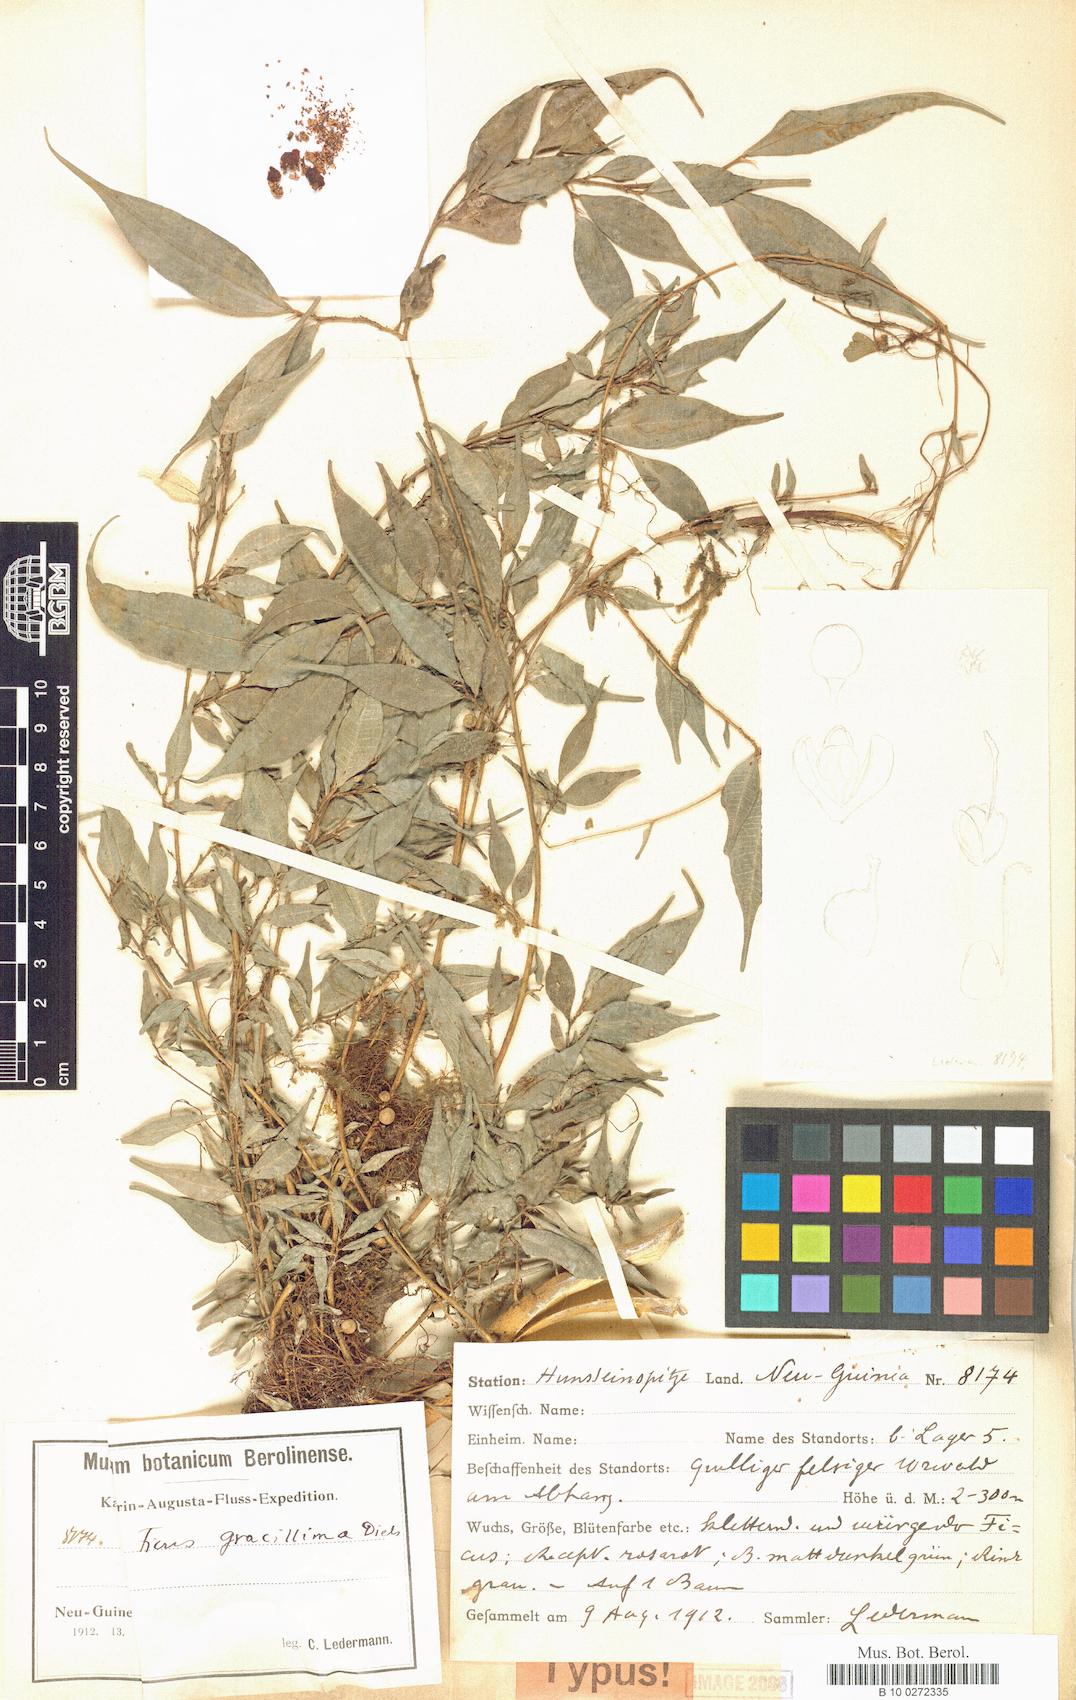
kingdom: Plantae
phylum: Tracheophyta
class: Magnoliopsida
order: Rosales
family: Moraceae
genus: Ficus
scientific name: Ficus gracillima
